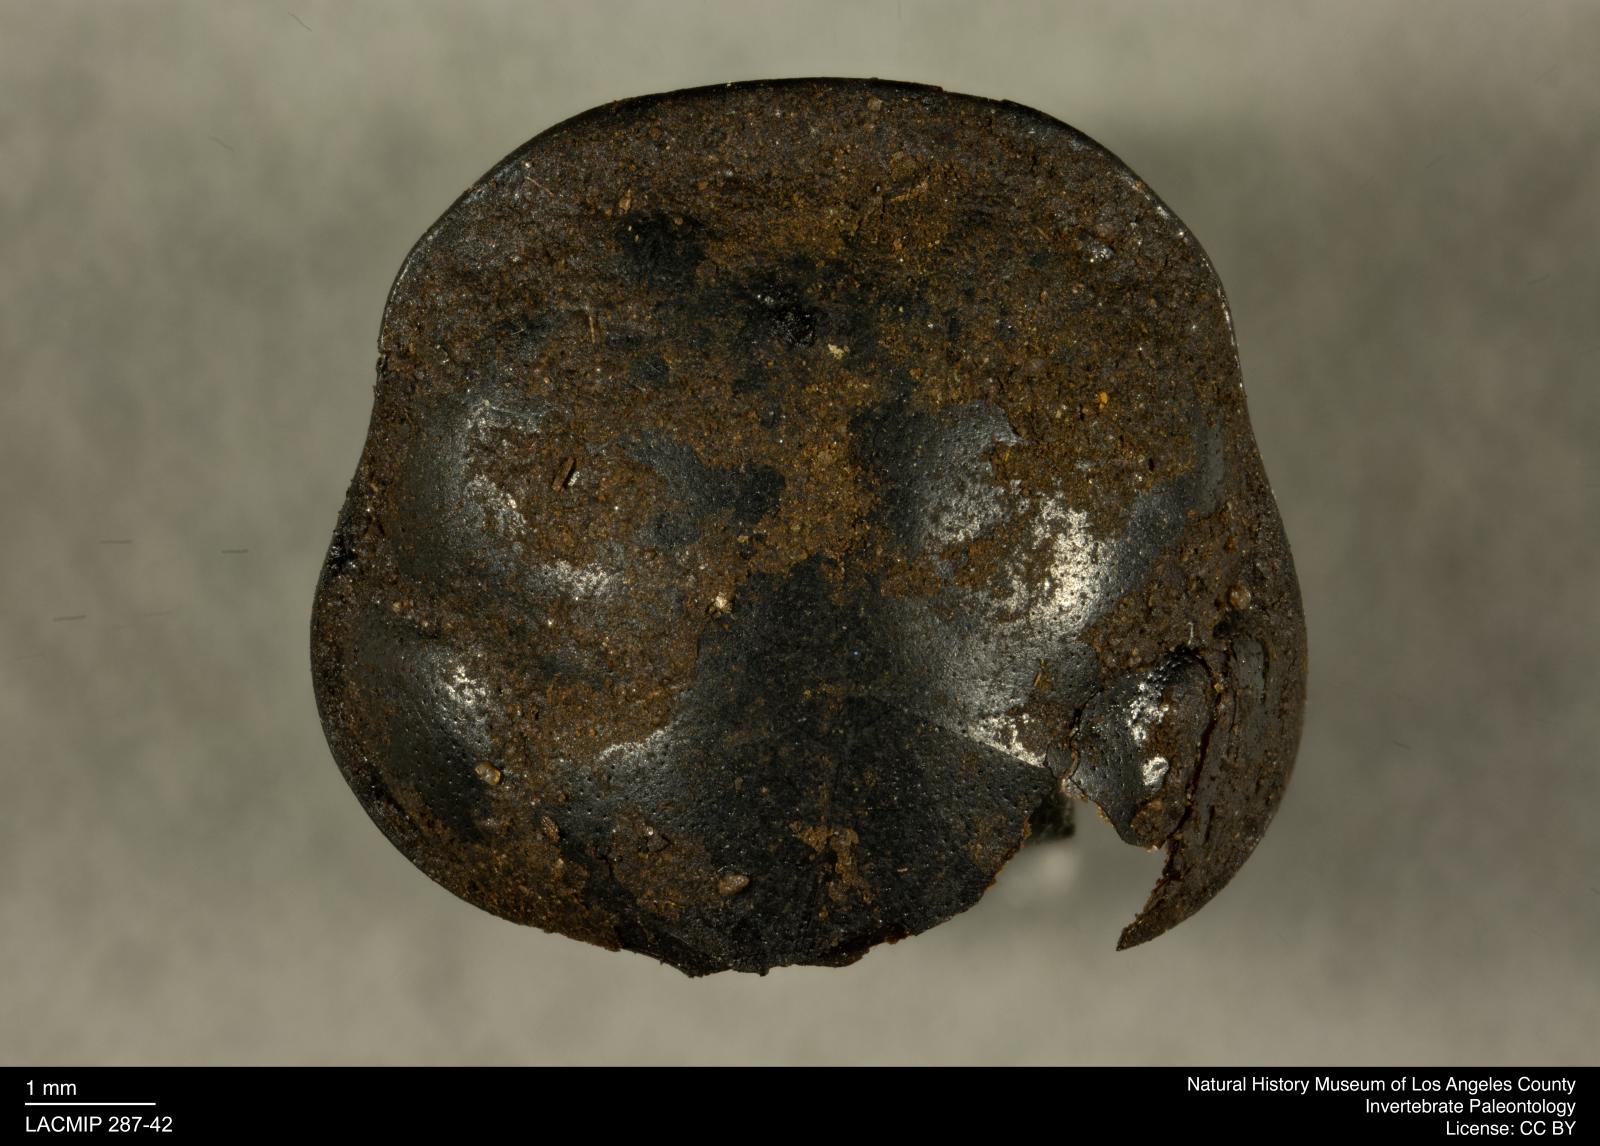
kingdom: Animalia
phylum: Arthropoda
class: Insecta
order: Coleoptera
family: Staphylinidae
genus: Nicrophorus
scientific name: Nicrophorus marginatus
